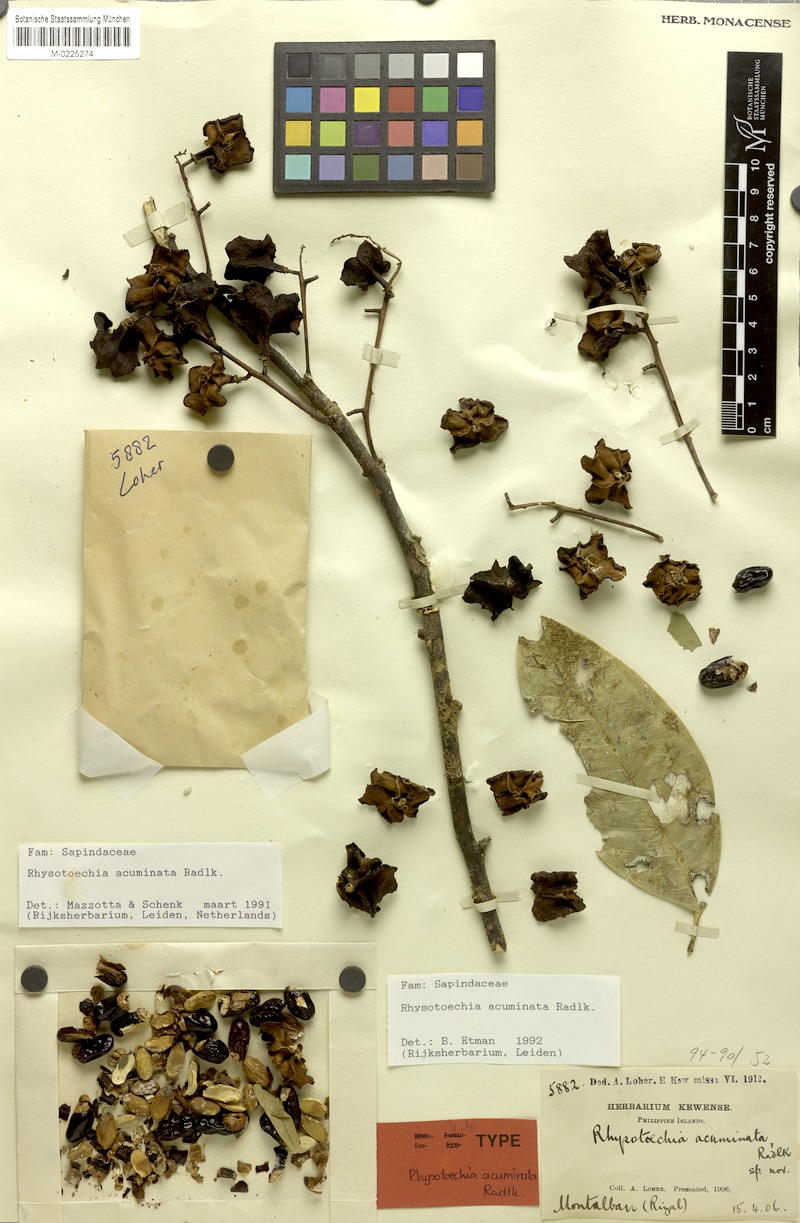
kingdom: Plantae
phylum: Tracheophyta
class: Magnoliopsida
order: Sapindales
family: Sapindaceae
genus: Rhysotoechia
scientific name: Rhysotoechia ramiflora
